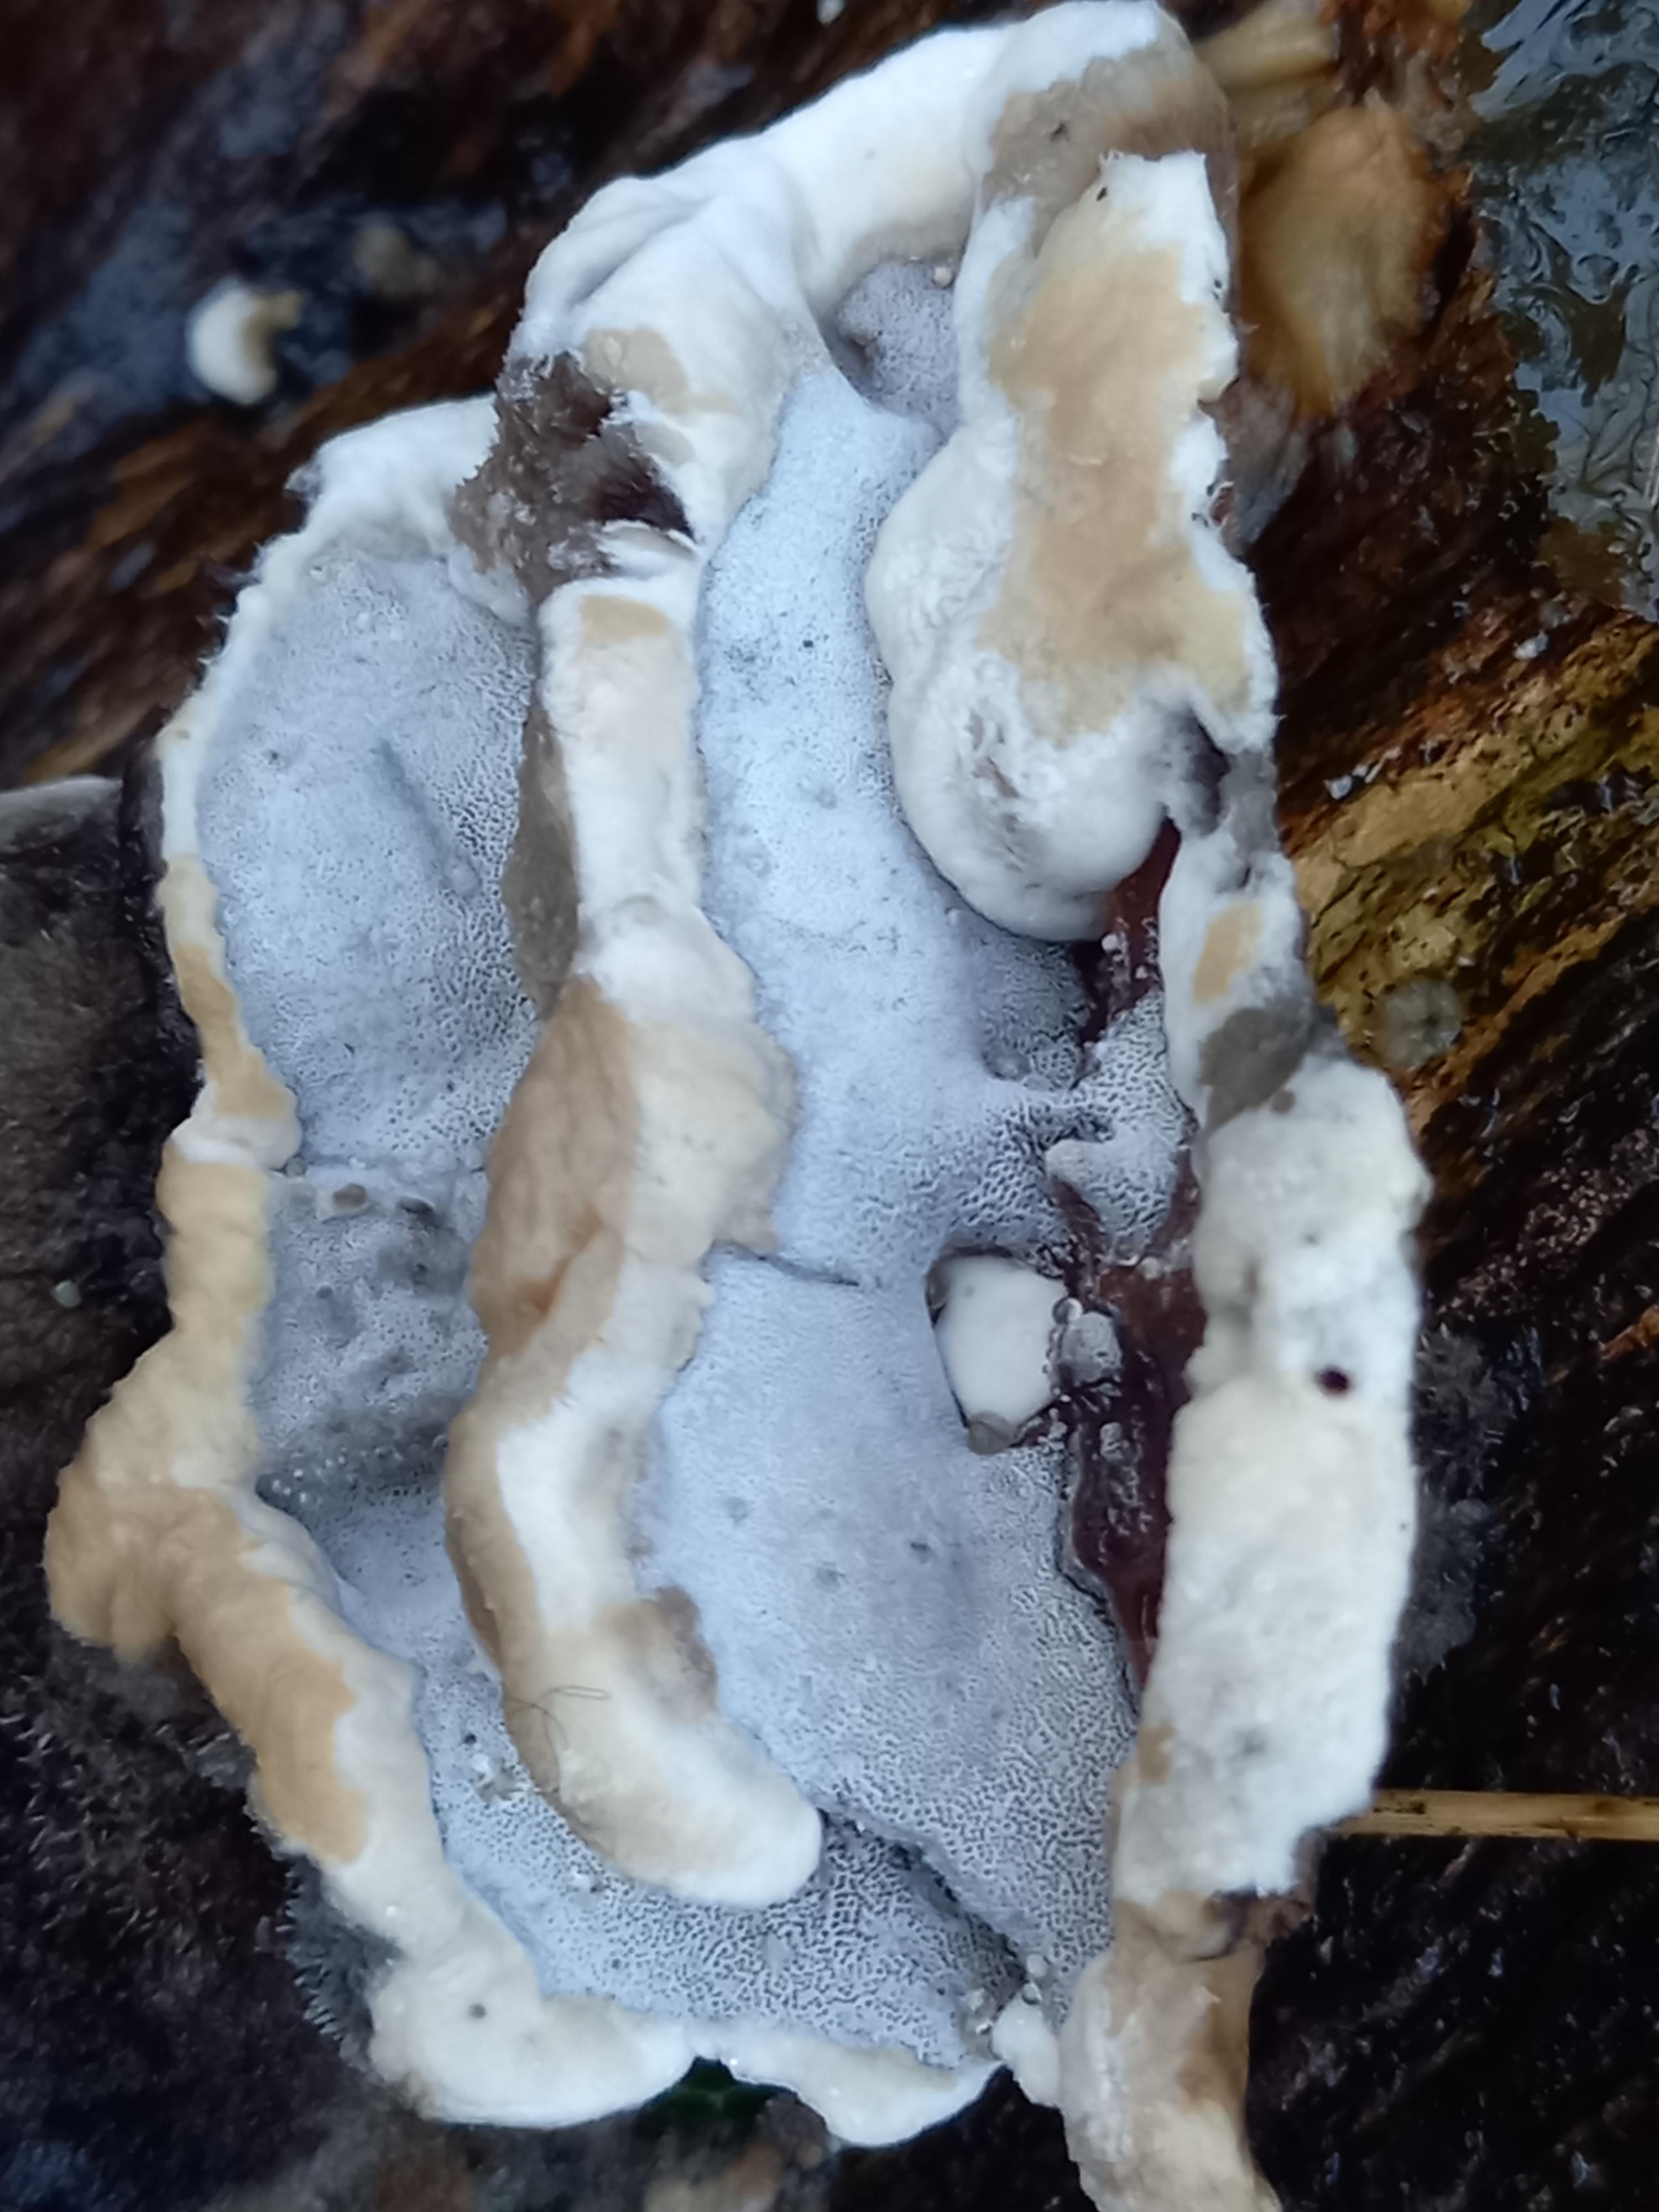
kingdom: Fungi
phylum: Basidiomycota
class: Agaricomycetes
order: Polyporales
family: Phanerochaetaceae
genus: Bjerkandera
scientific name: Bjerkandera adusta
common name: sveden sodporesvamp
